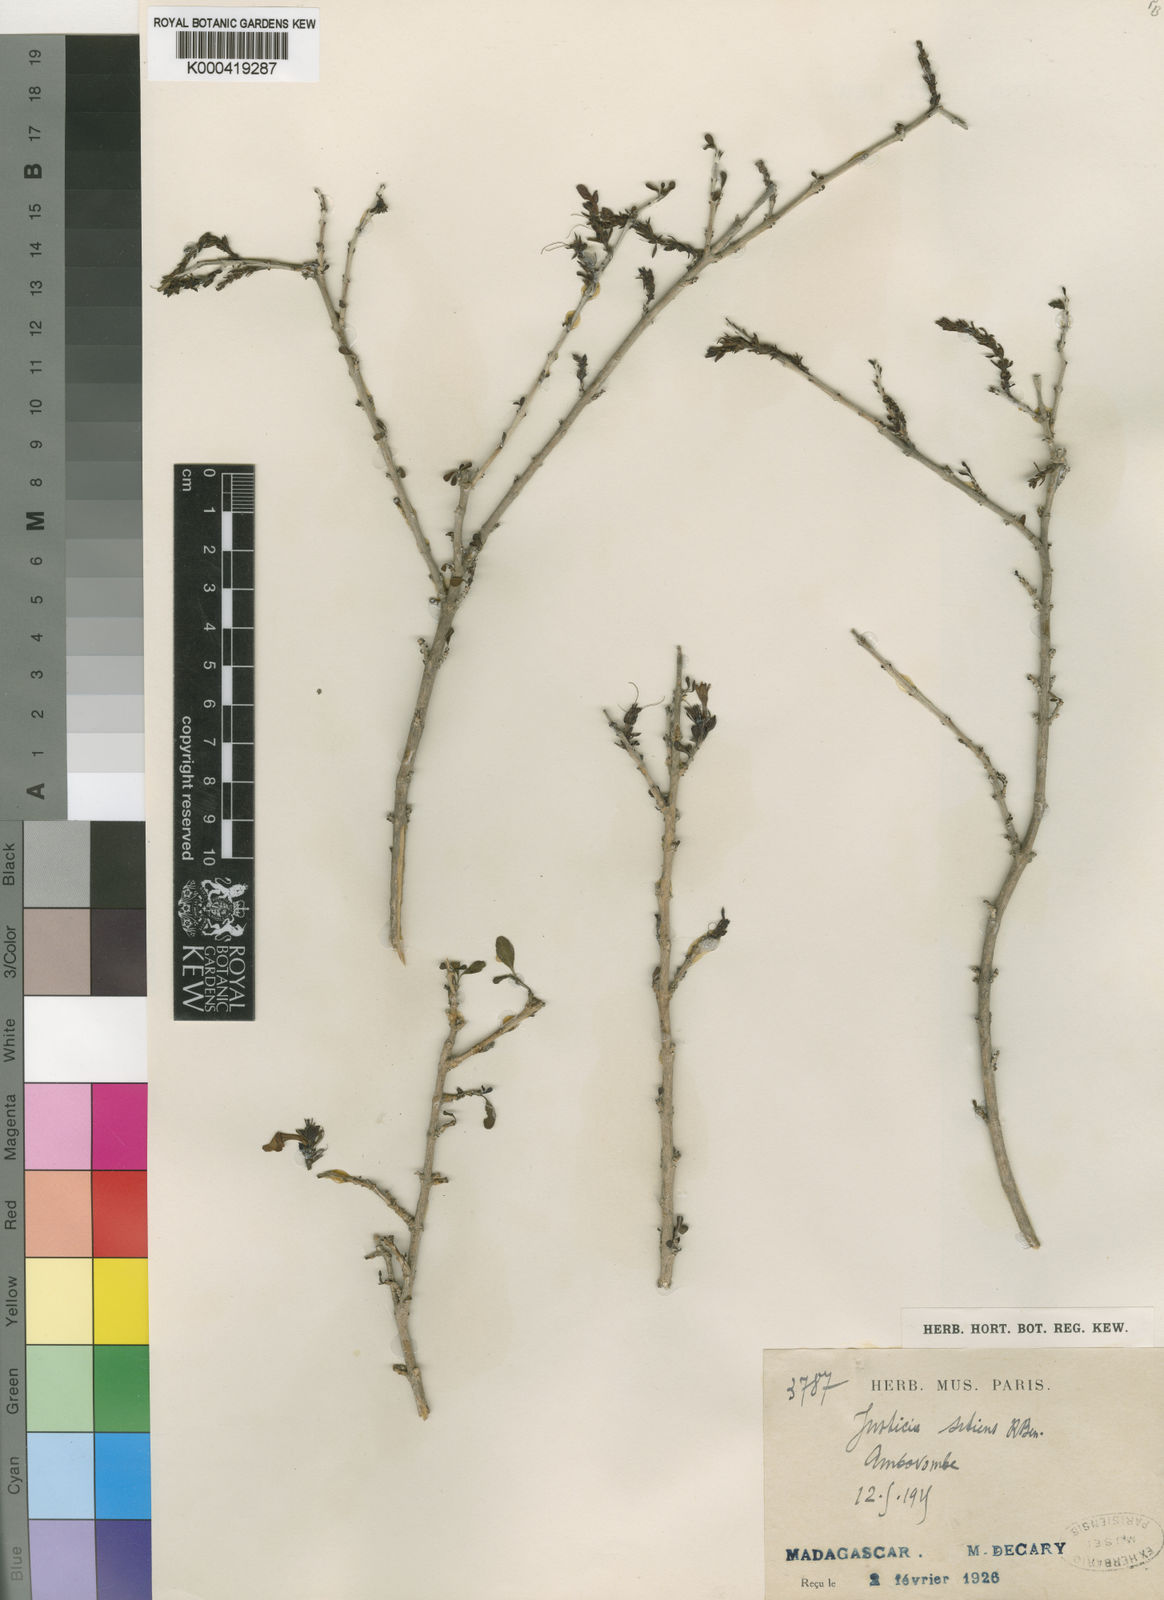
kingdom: Plantae
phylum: Tracheophyta
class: Magnoliopsida
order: Lamiales
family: Acanthaceae
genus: Justicia
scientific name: Justicia sitiens
